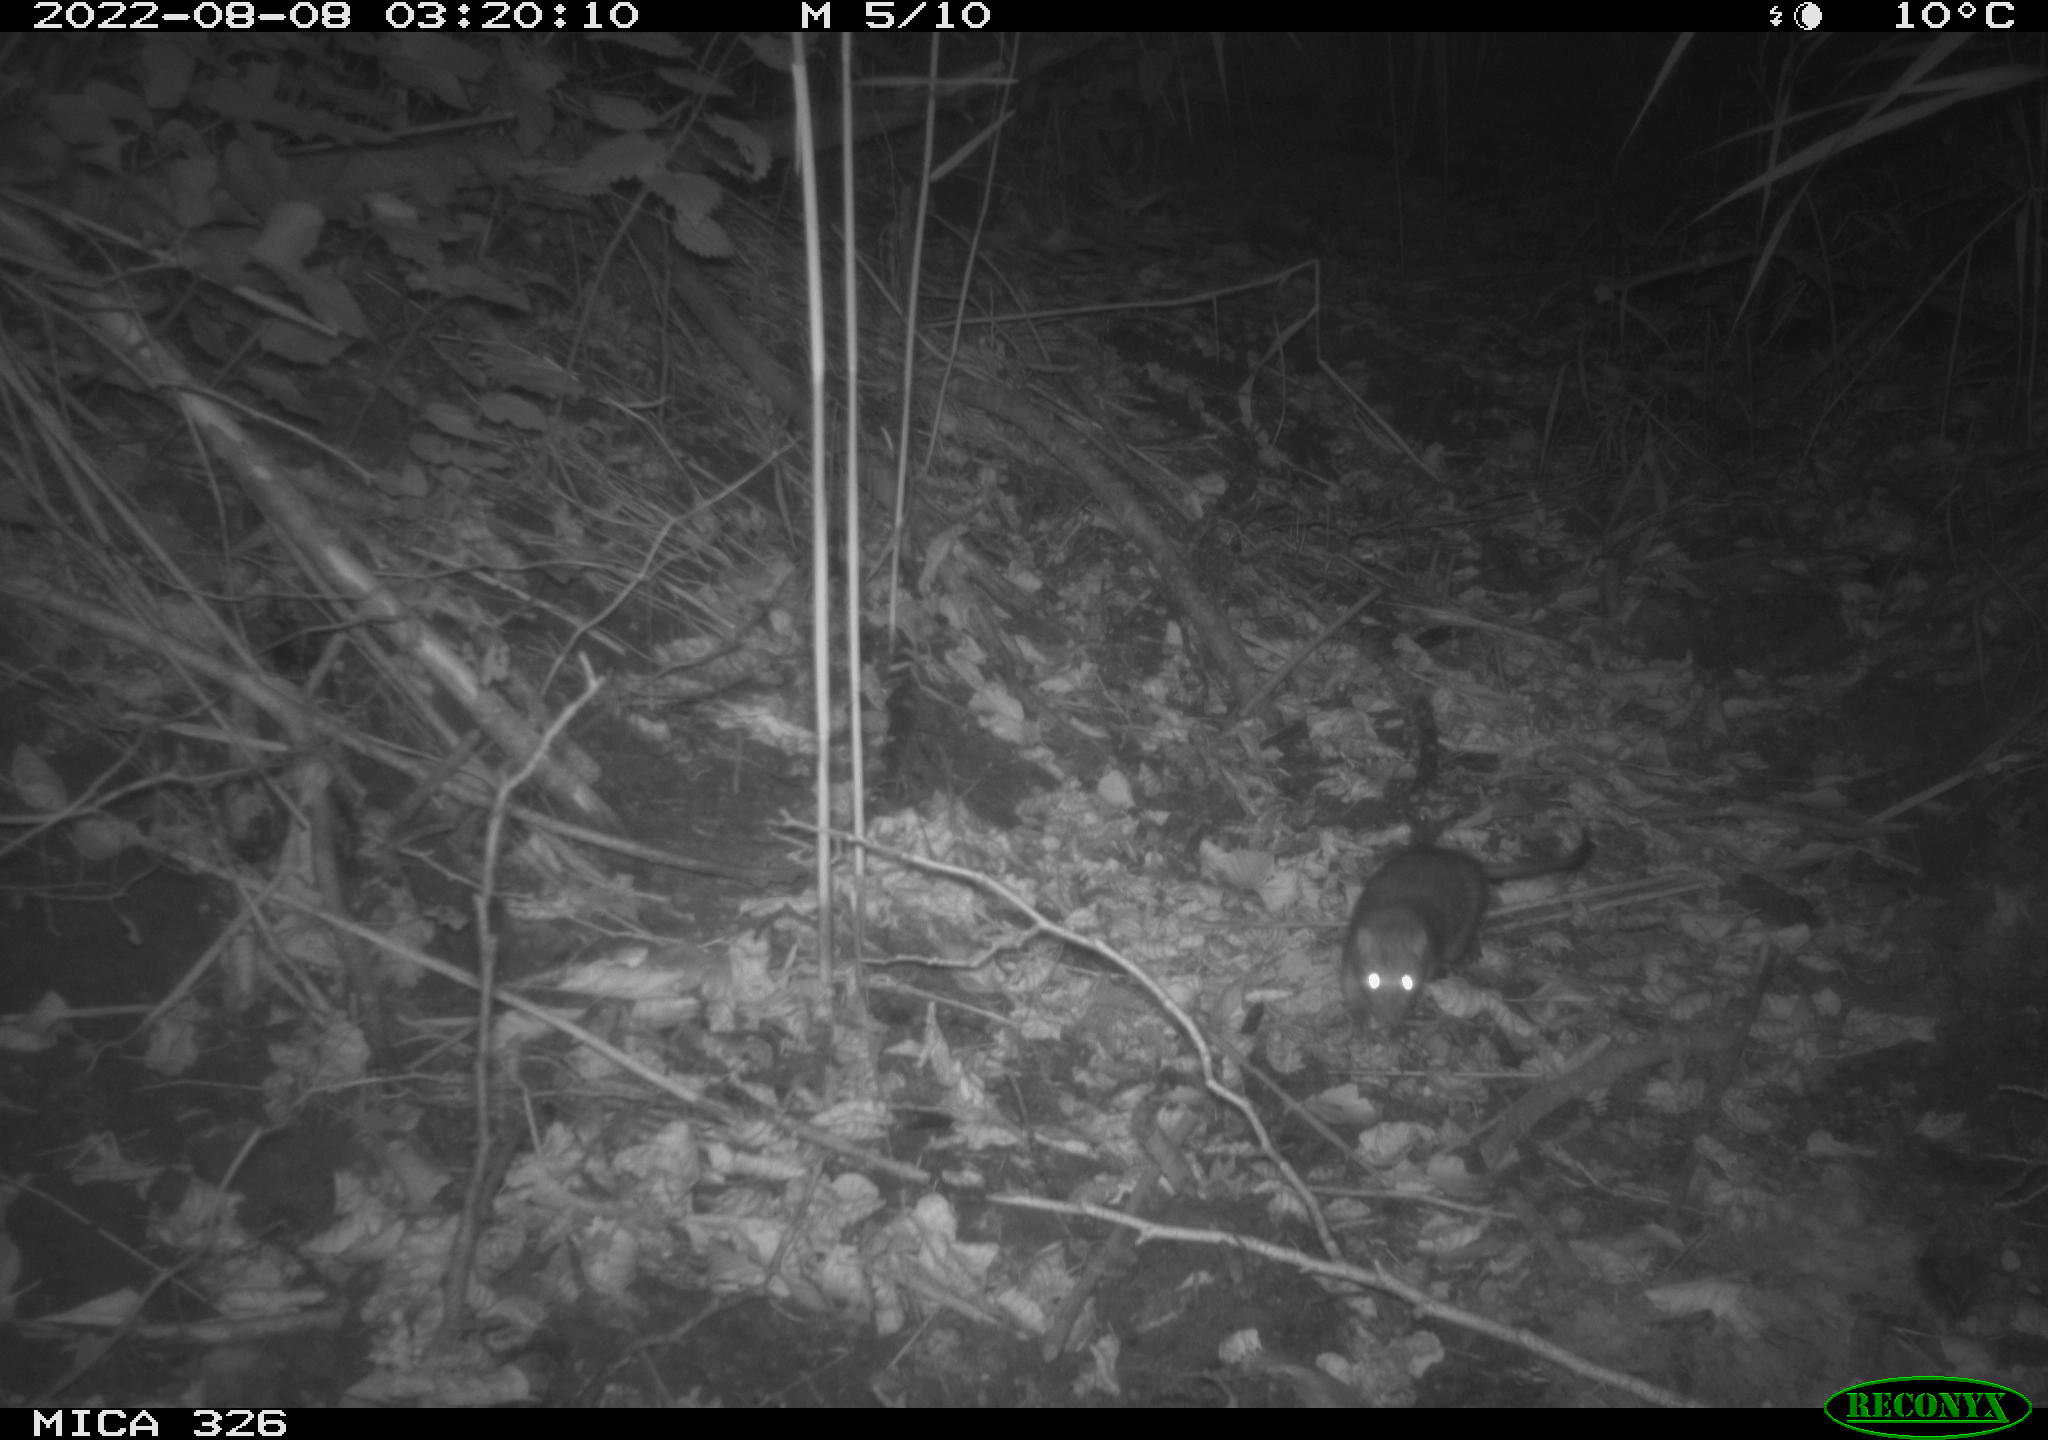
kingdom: Animalia
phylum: Chordata
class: Mammalia
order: Rodentia
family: Muridae
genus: Rattus
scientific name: Rattus norvegicus
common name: Brown rat
